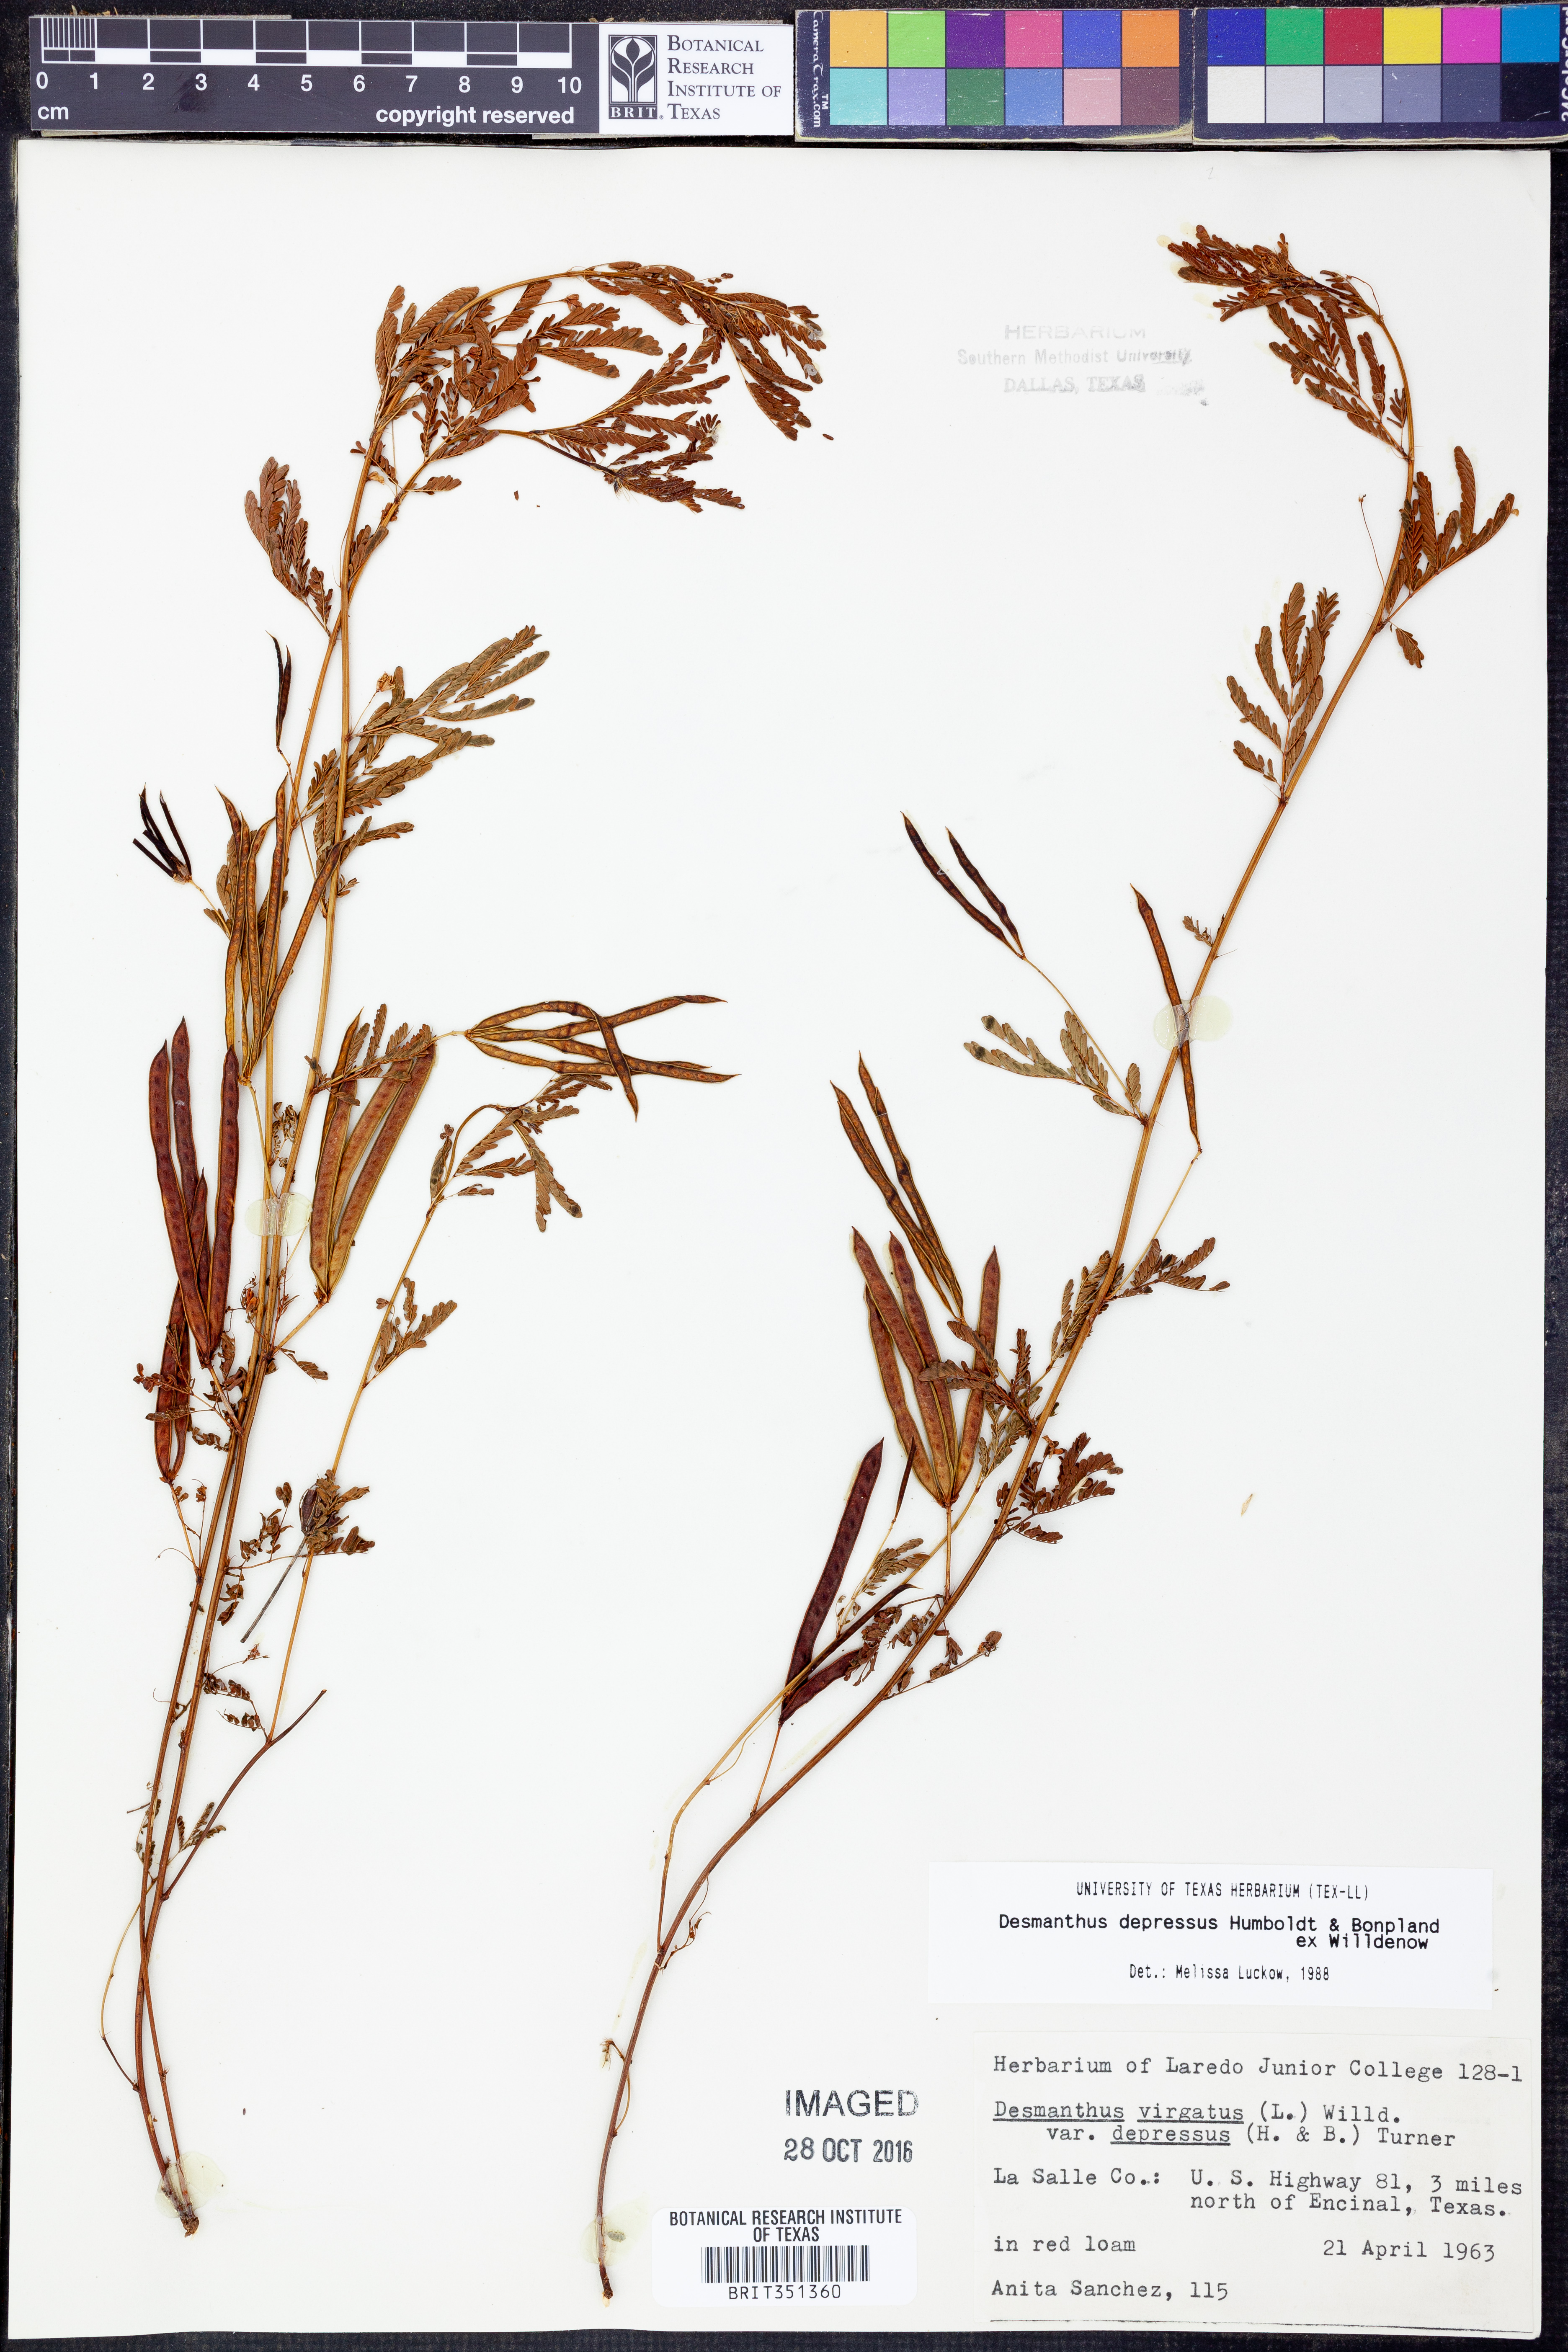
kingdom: Plantae
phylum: Tracheophyta
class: Magnoliopsida
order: Fabales
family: Fabaceae
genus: Desmanthus
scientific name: Desmanthus virgatus
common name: Wild tantan
